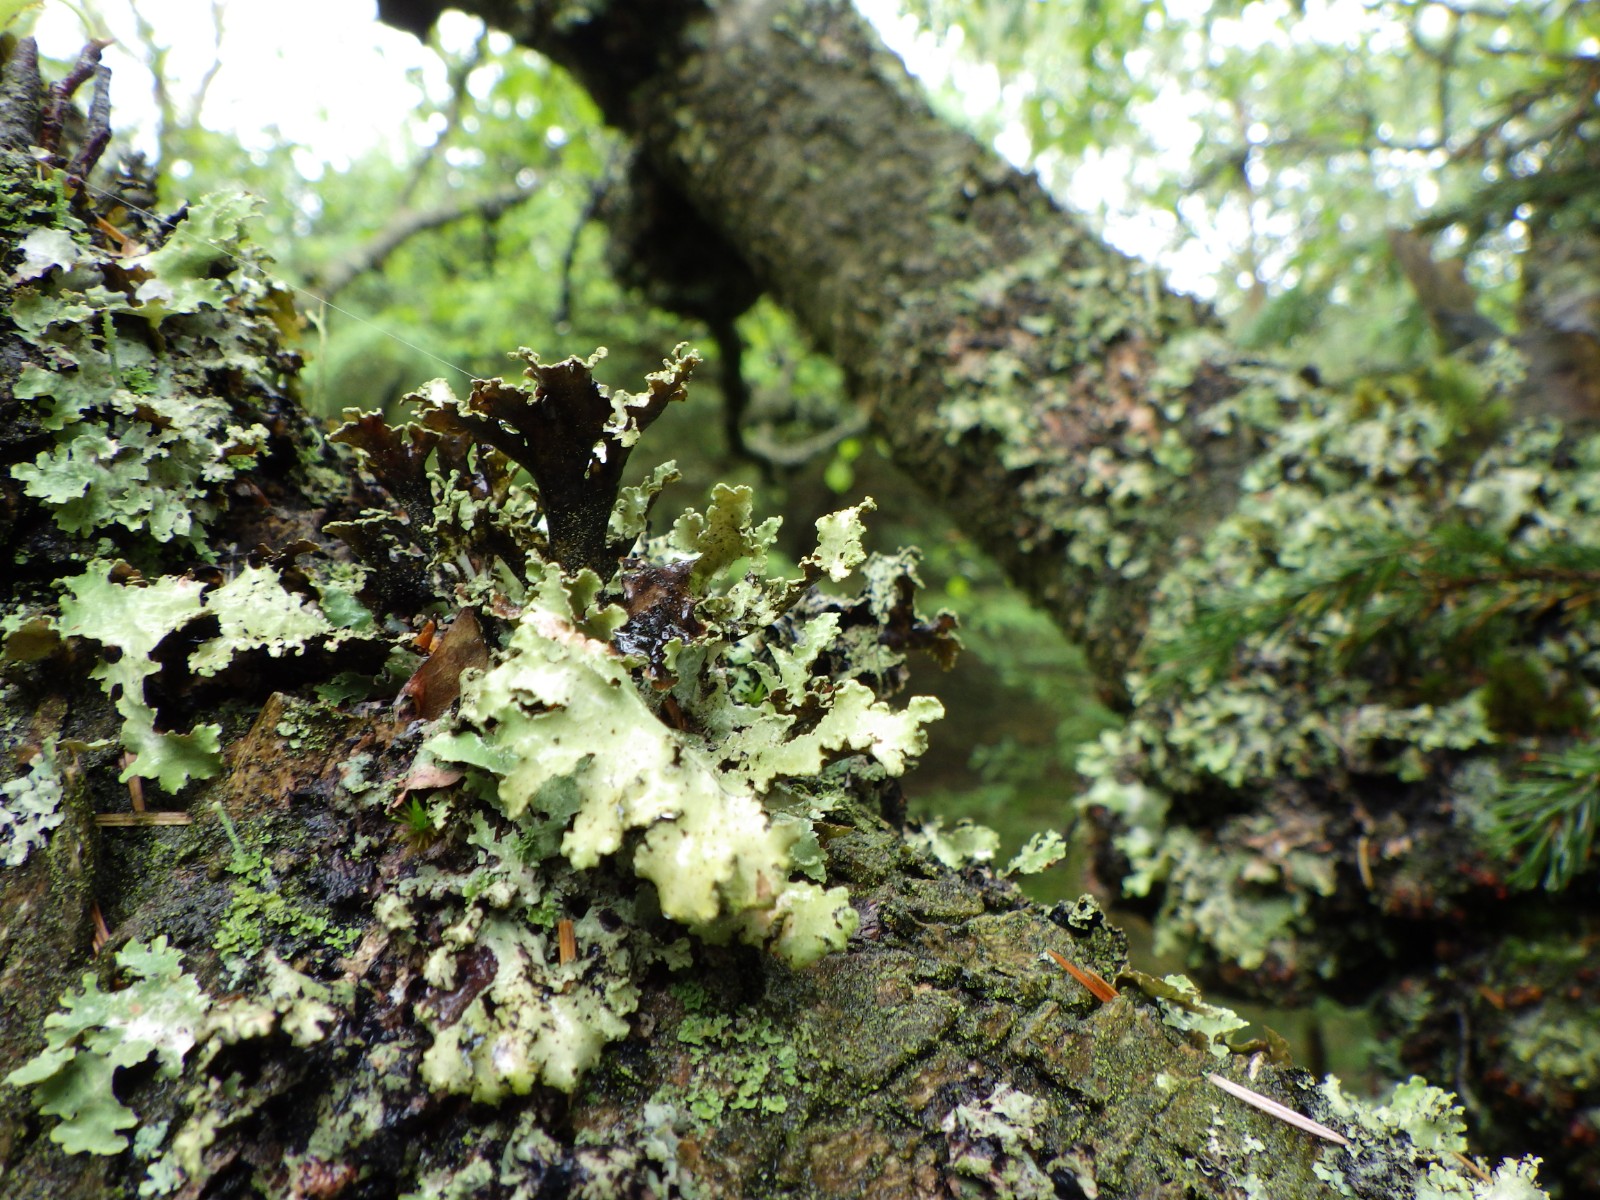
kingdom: Fungi
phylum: Ascomycota
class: Lecanoromycetes
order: Lecanorales
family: Parmeliaceae
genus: Platismatia
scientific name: Platismatia glauca
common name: blågrå papirlav
